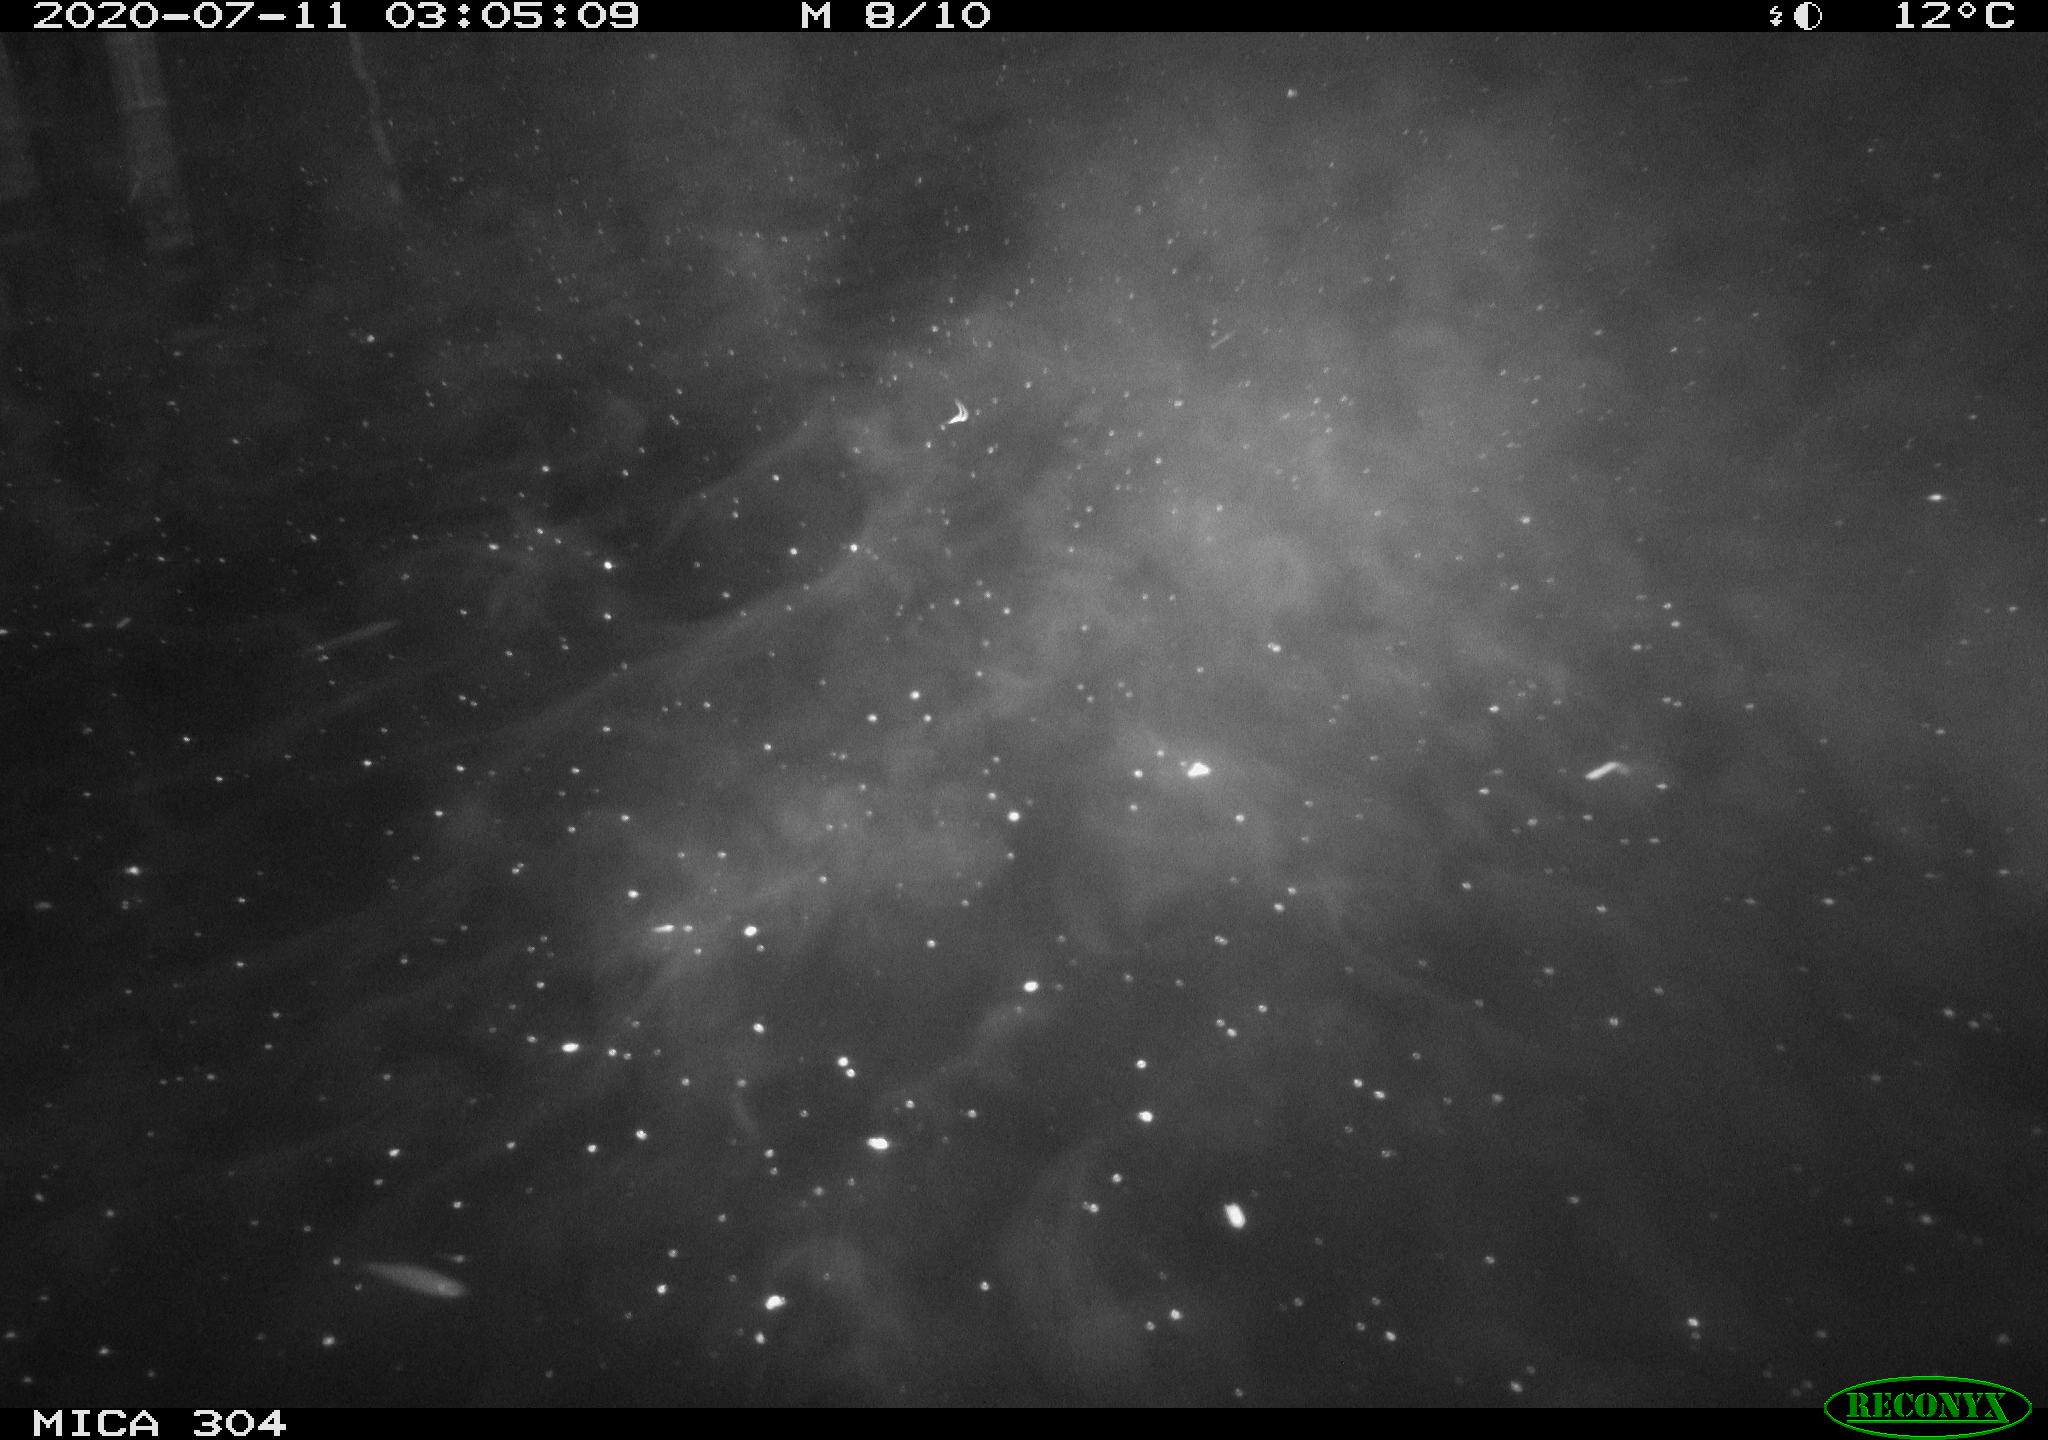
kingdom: Animalia
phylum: Chordata
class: Mammalia
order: Rodentia
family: Cricetidae
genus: Ondatra
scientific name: Ondatra zibethicus
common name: Muskrat
